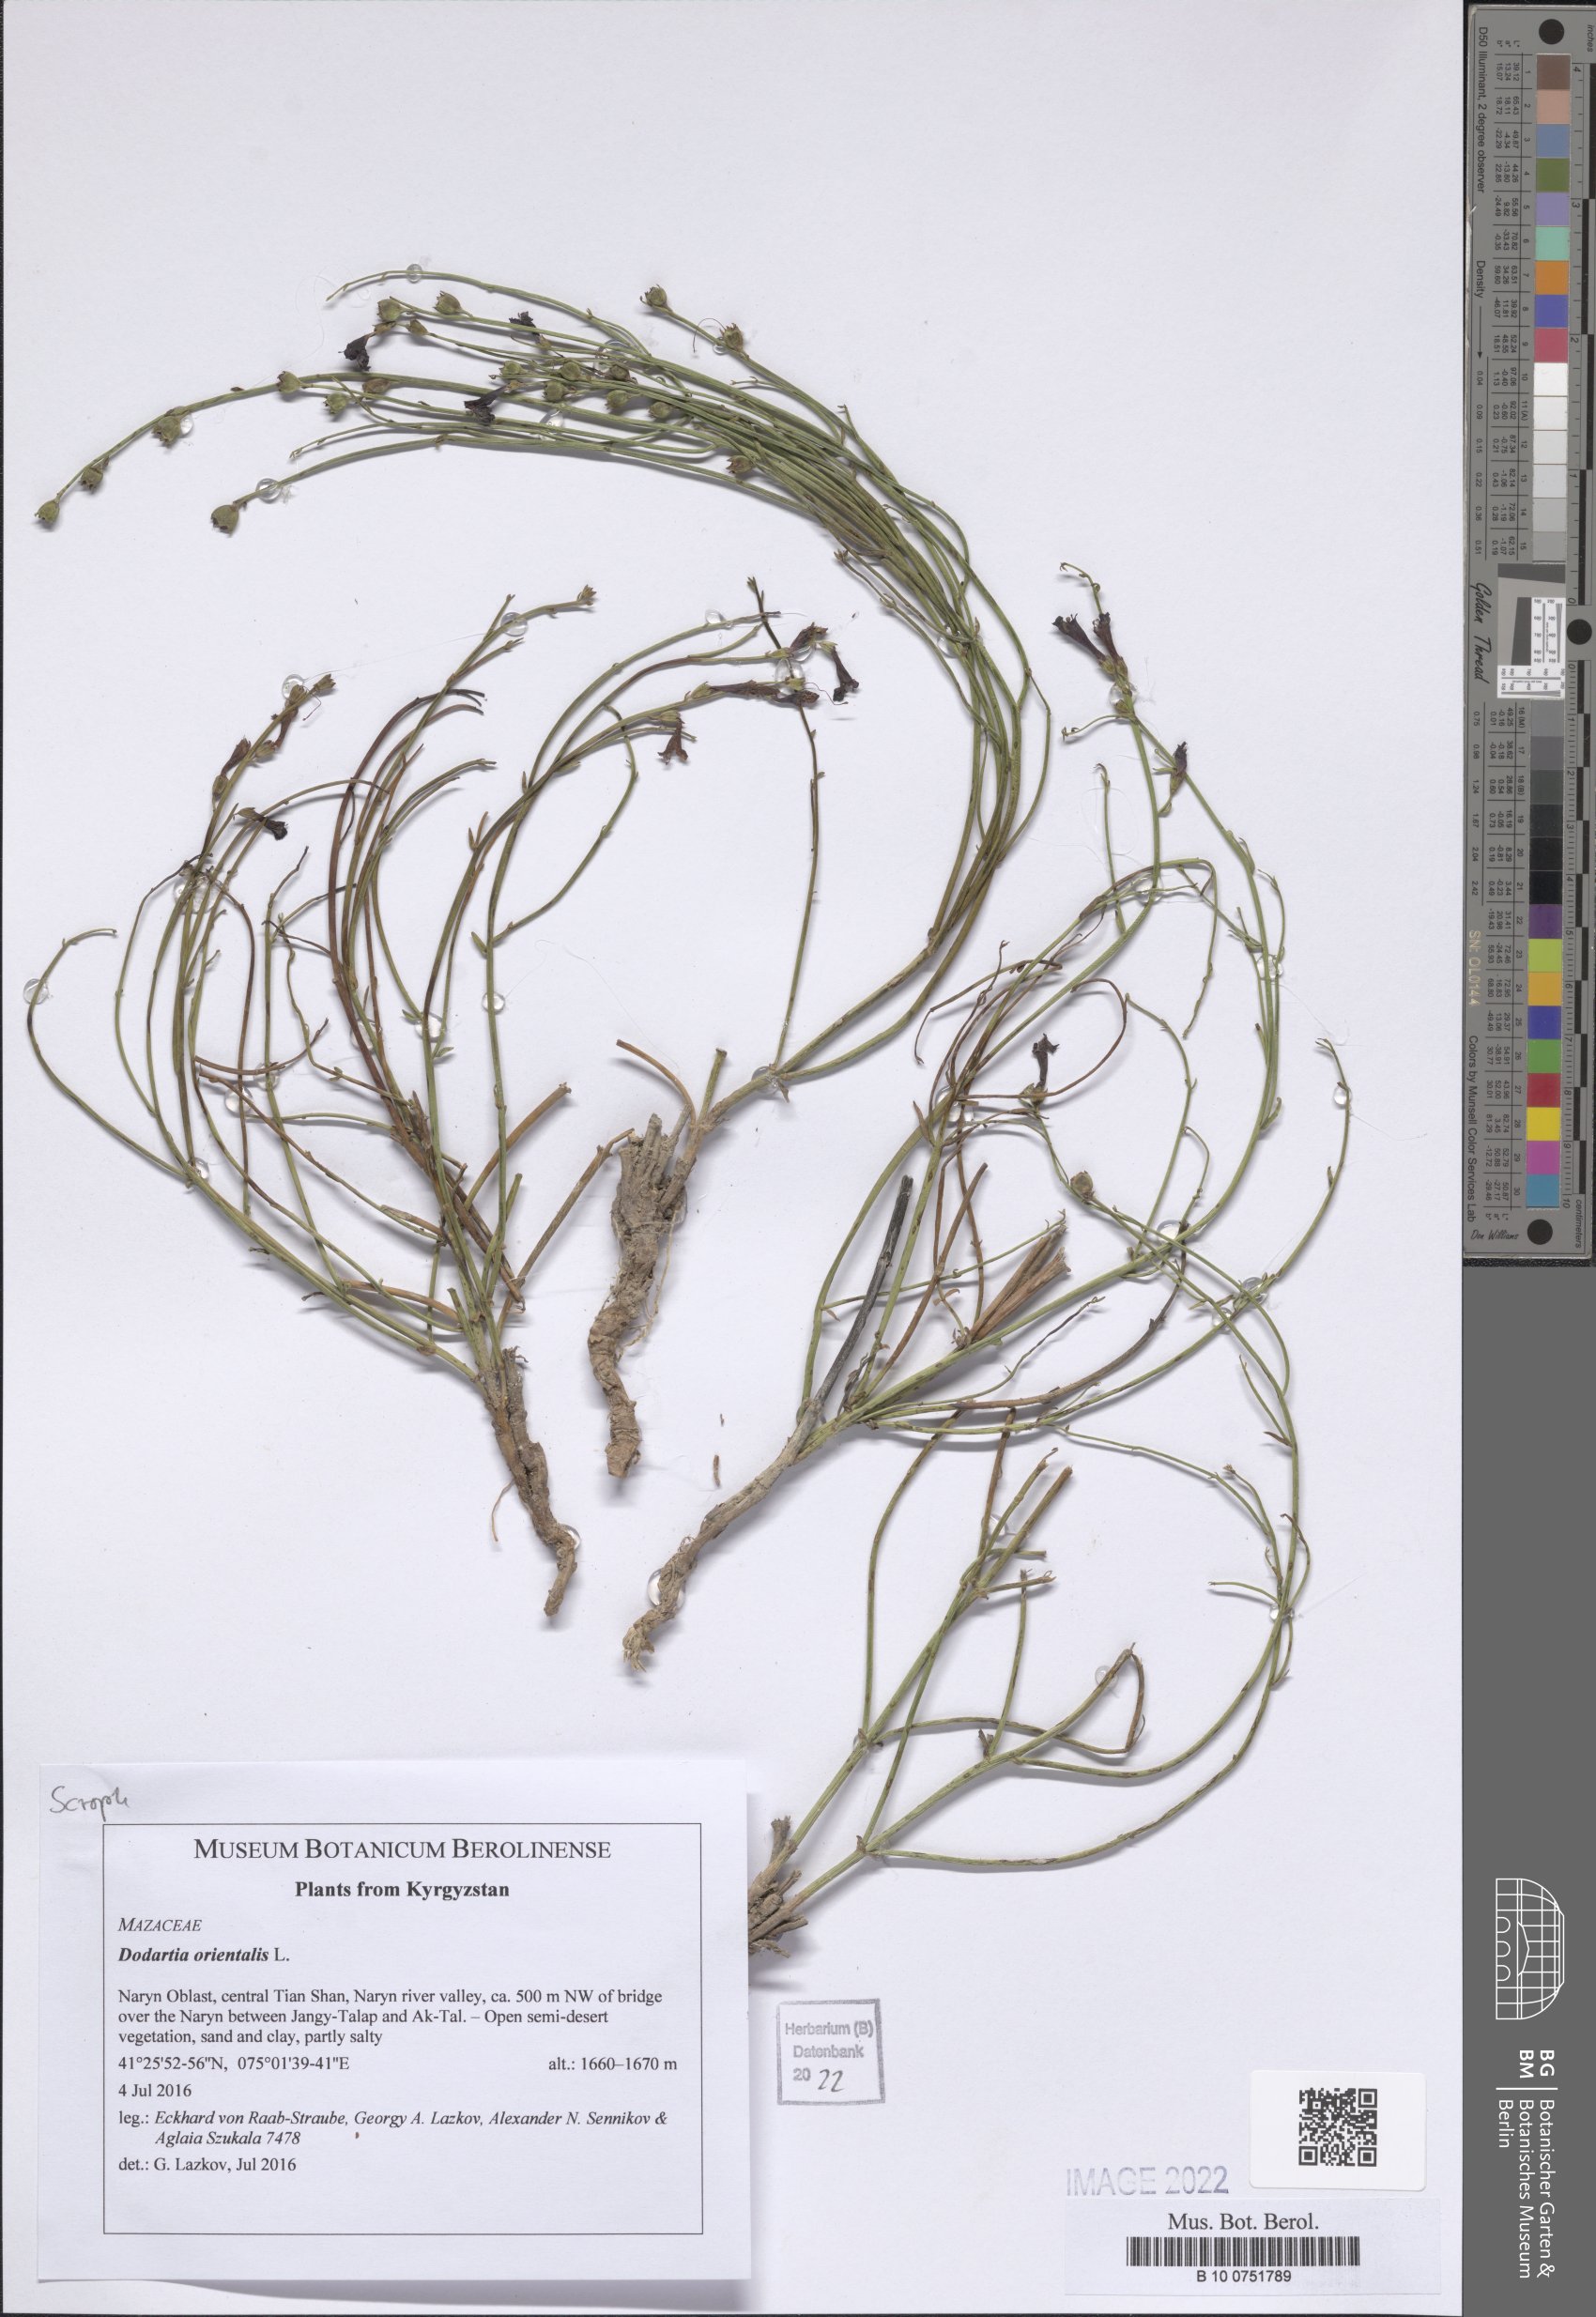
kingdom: Plantae
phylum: Tracheophyta
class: Magnoliopsida
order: Lamiales
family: Mazaceae
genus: Dodartia
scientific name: Dodartia orientalis
